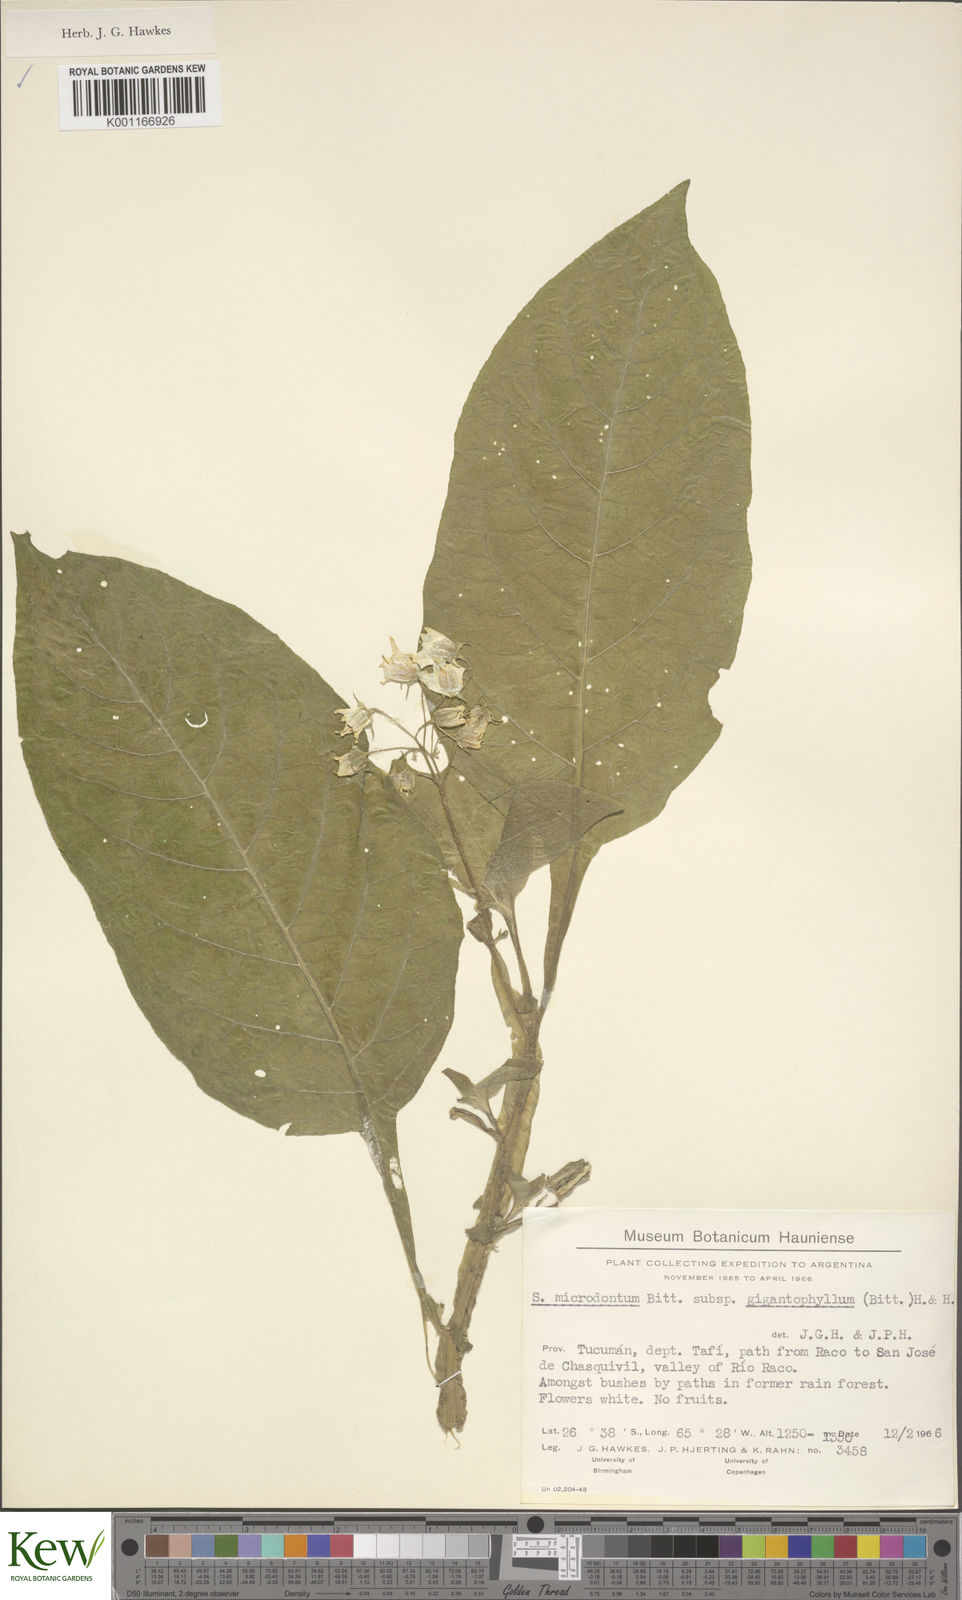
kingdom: Plantae
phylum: Tracheophyta
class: Magnoliopsida
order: Solanales
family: Solanaceae
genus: Solanum
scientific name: Solanum microdontum
